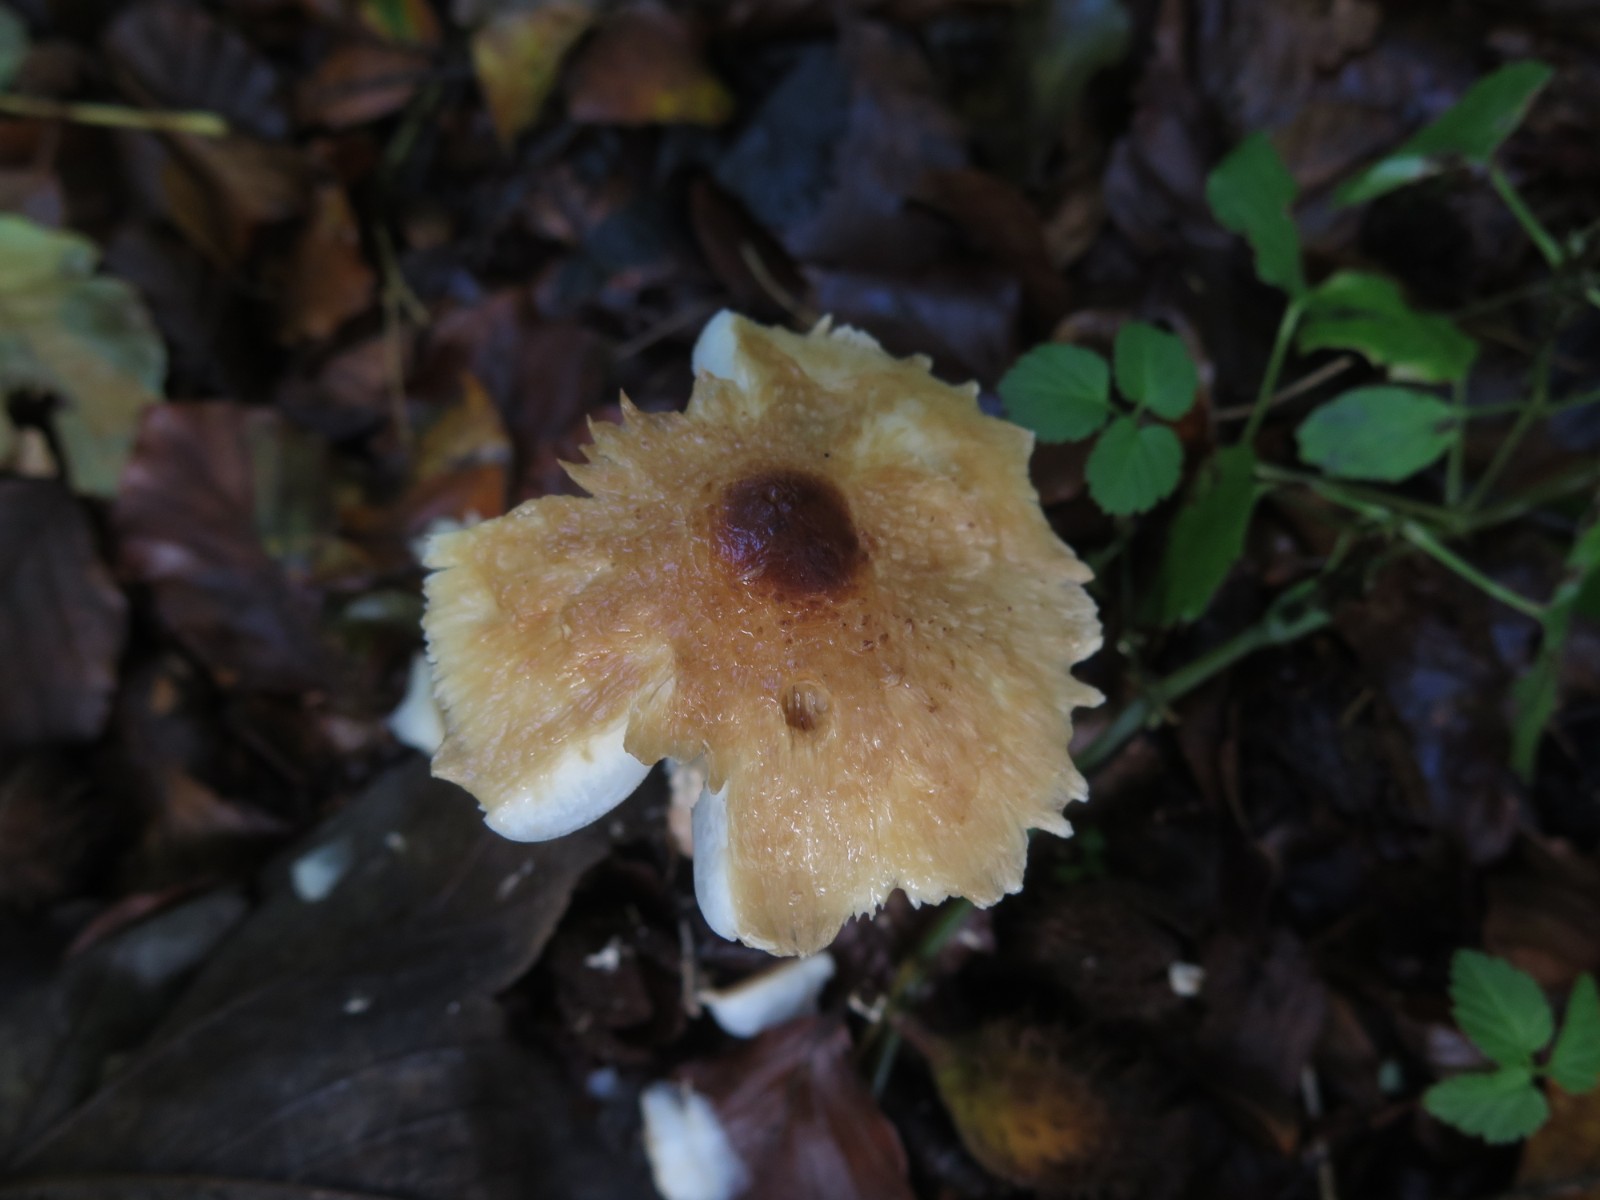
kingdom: Fungi
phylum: Basidiomycota
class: Agaricomycetes
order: Agaricales
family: Agaricaceae
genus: Lepiota
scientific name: Lepiota magnispora
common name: gulfnugget parasolhat
